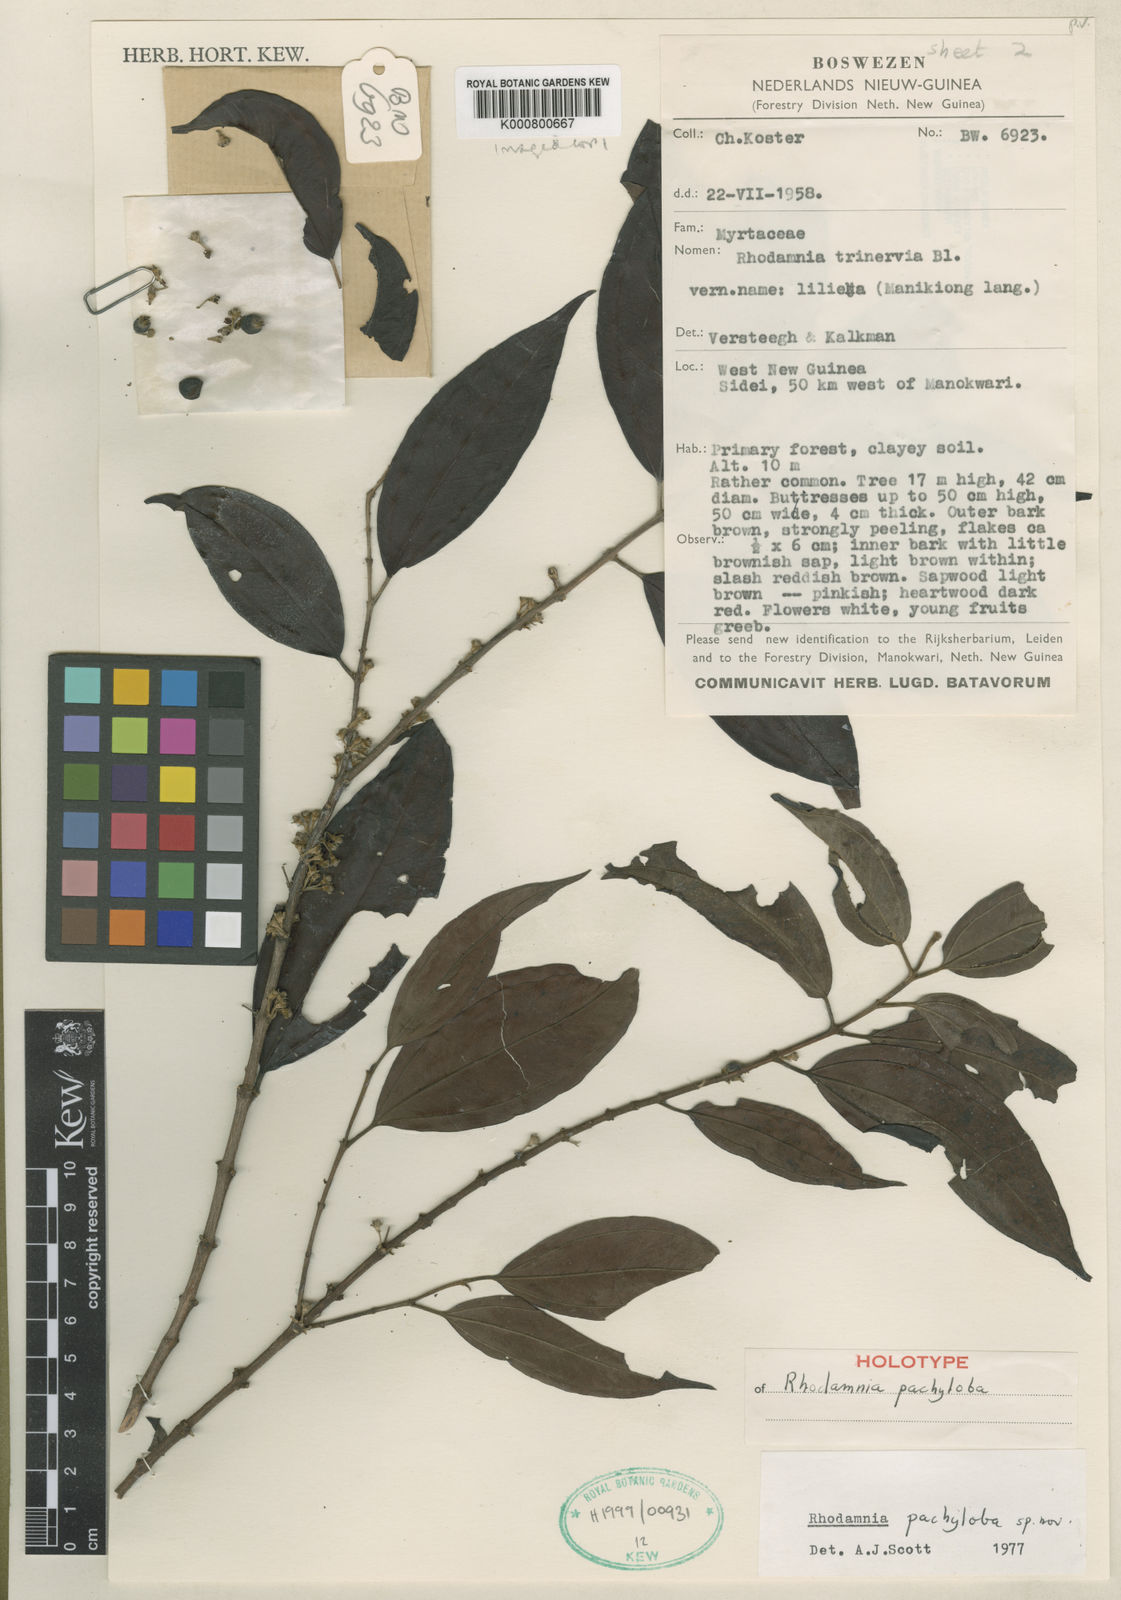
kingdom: Plantae
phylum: Tracheophyta
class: Magnoliopsida
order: Myrtales
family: Myrtaceae
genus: Rhodamnia
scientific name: Rhodamnia pachyloba
